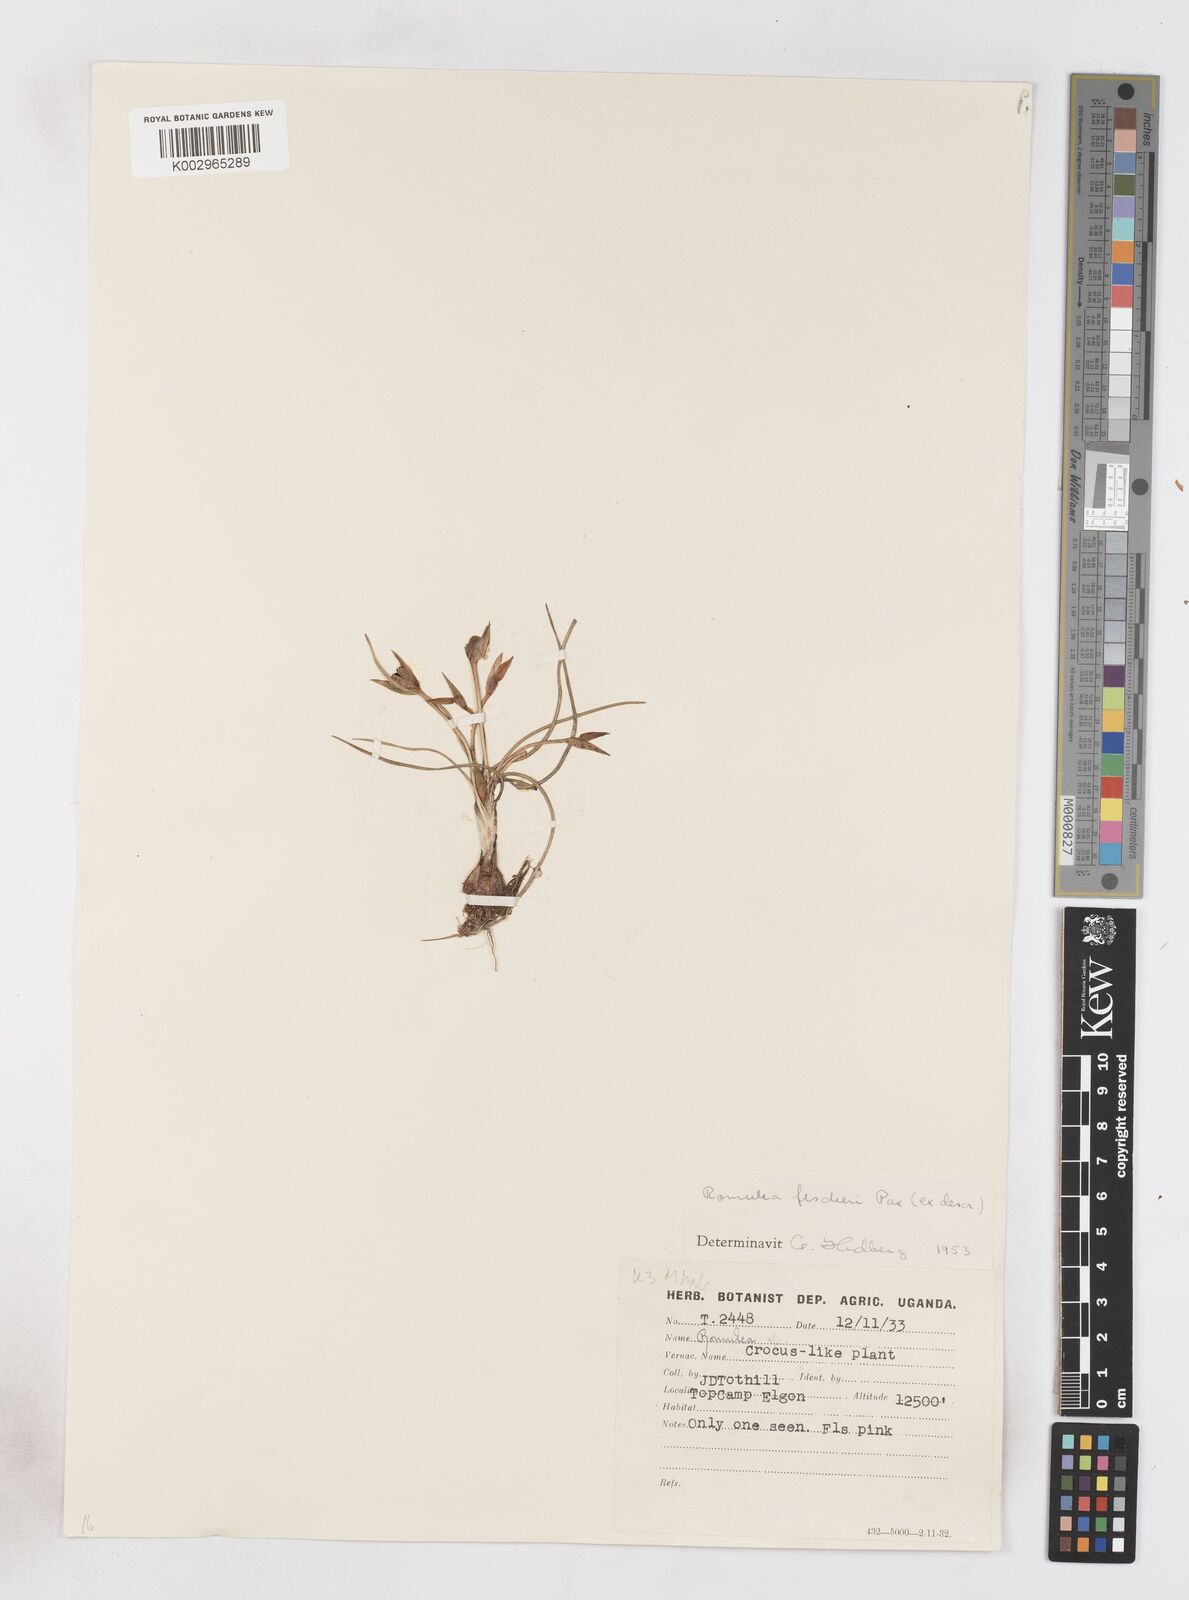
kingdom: Plantae
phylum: Tracheophyta
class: Liliopsida
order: Asparagales
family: Iridaceae
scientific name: Iridaceae
